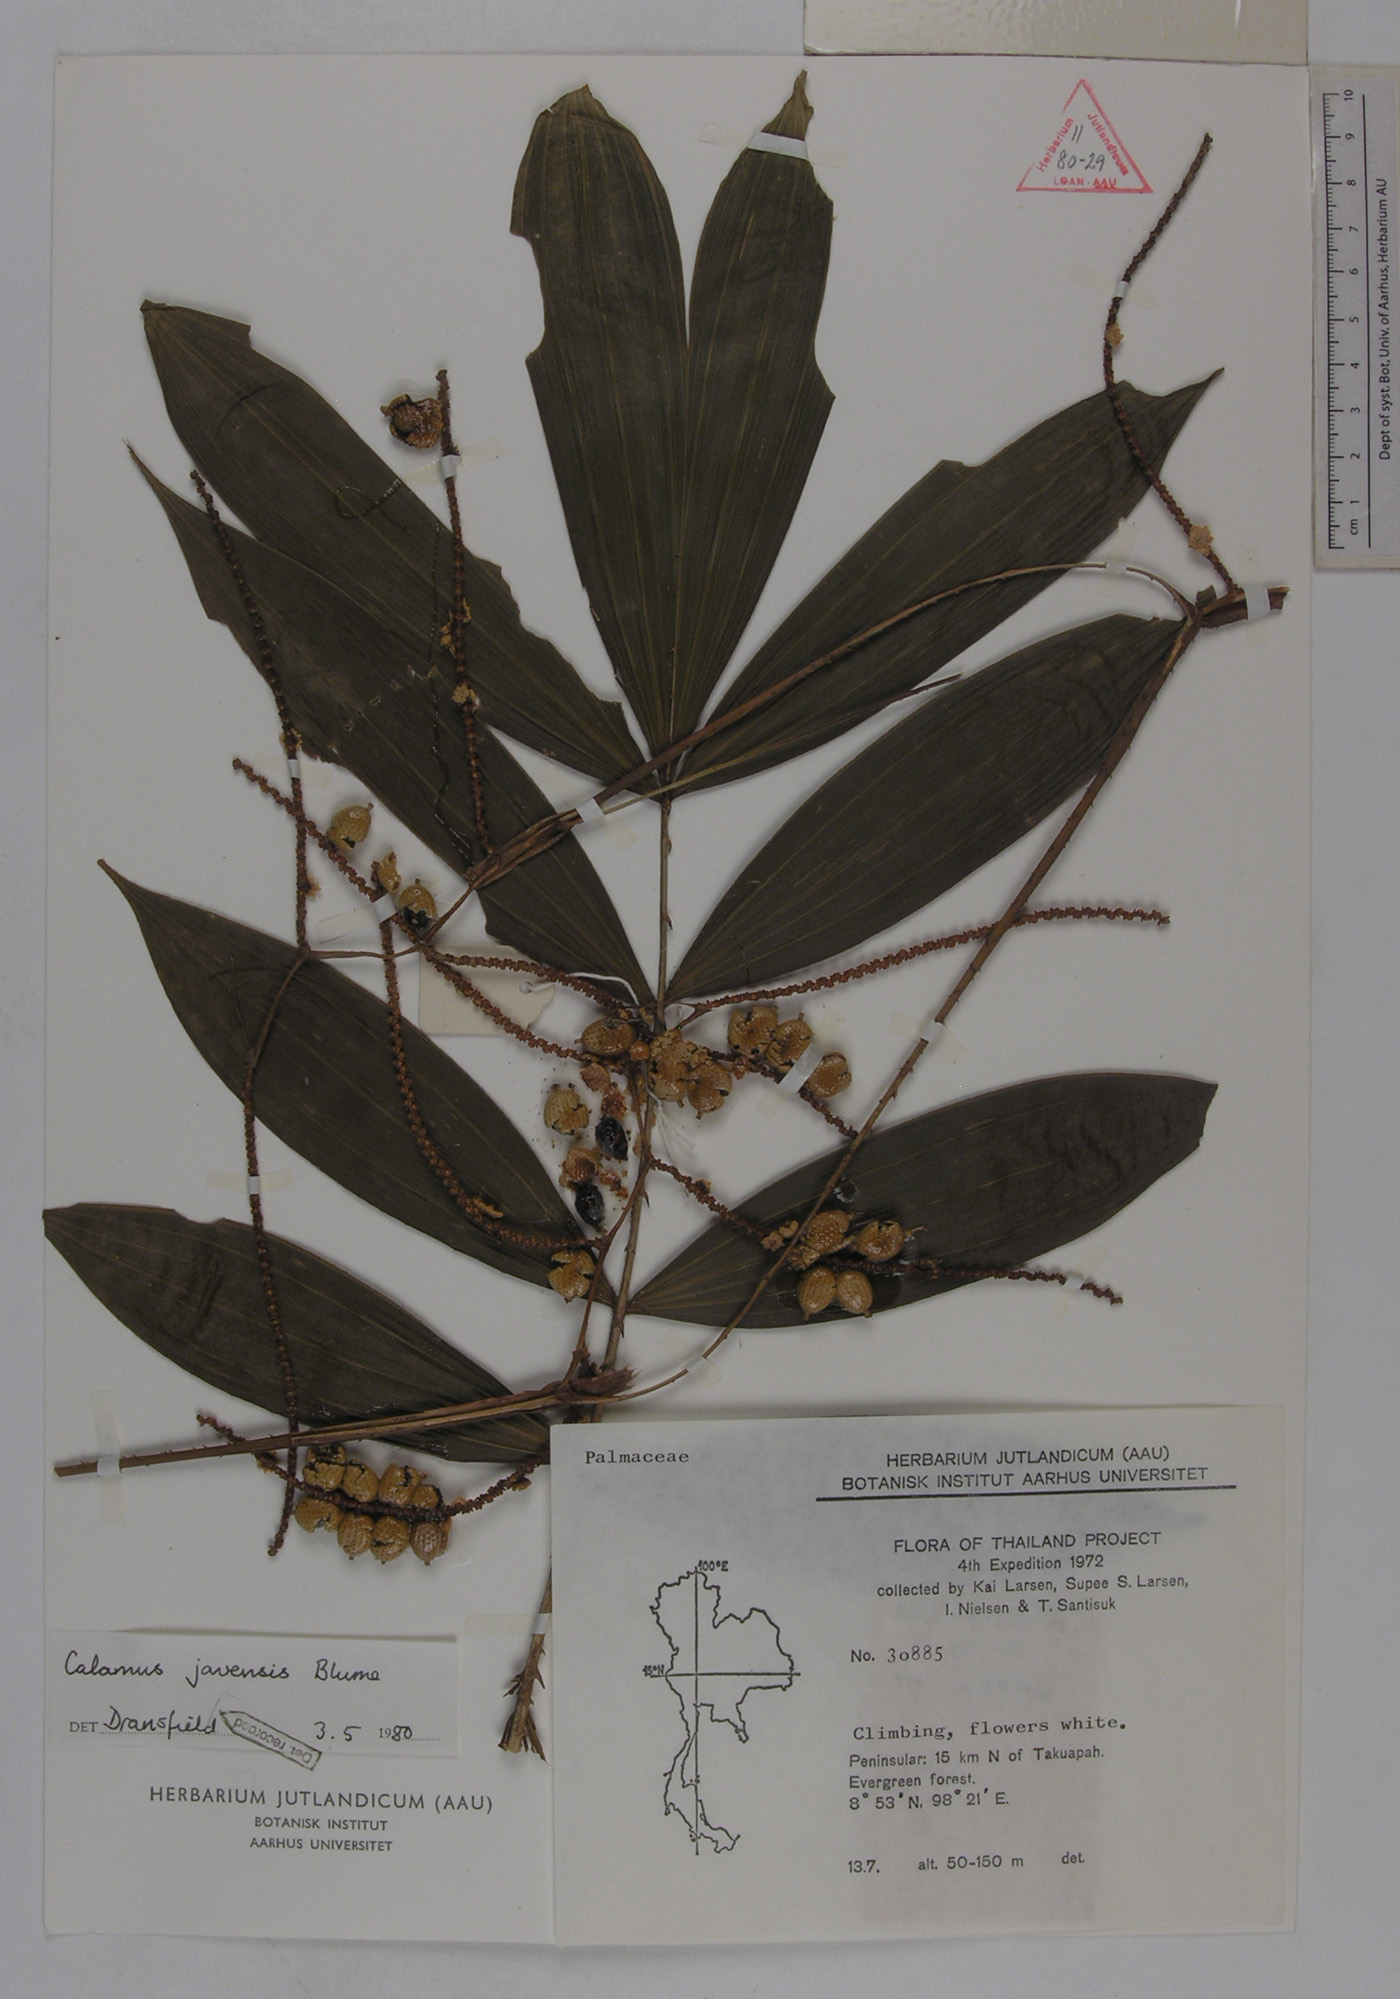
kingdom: Plantae
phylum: Tracheophyta
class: Liliopsida
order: Arecales
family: Arecaceae
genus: Calamus
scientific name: Calamus javensis
